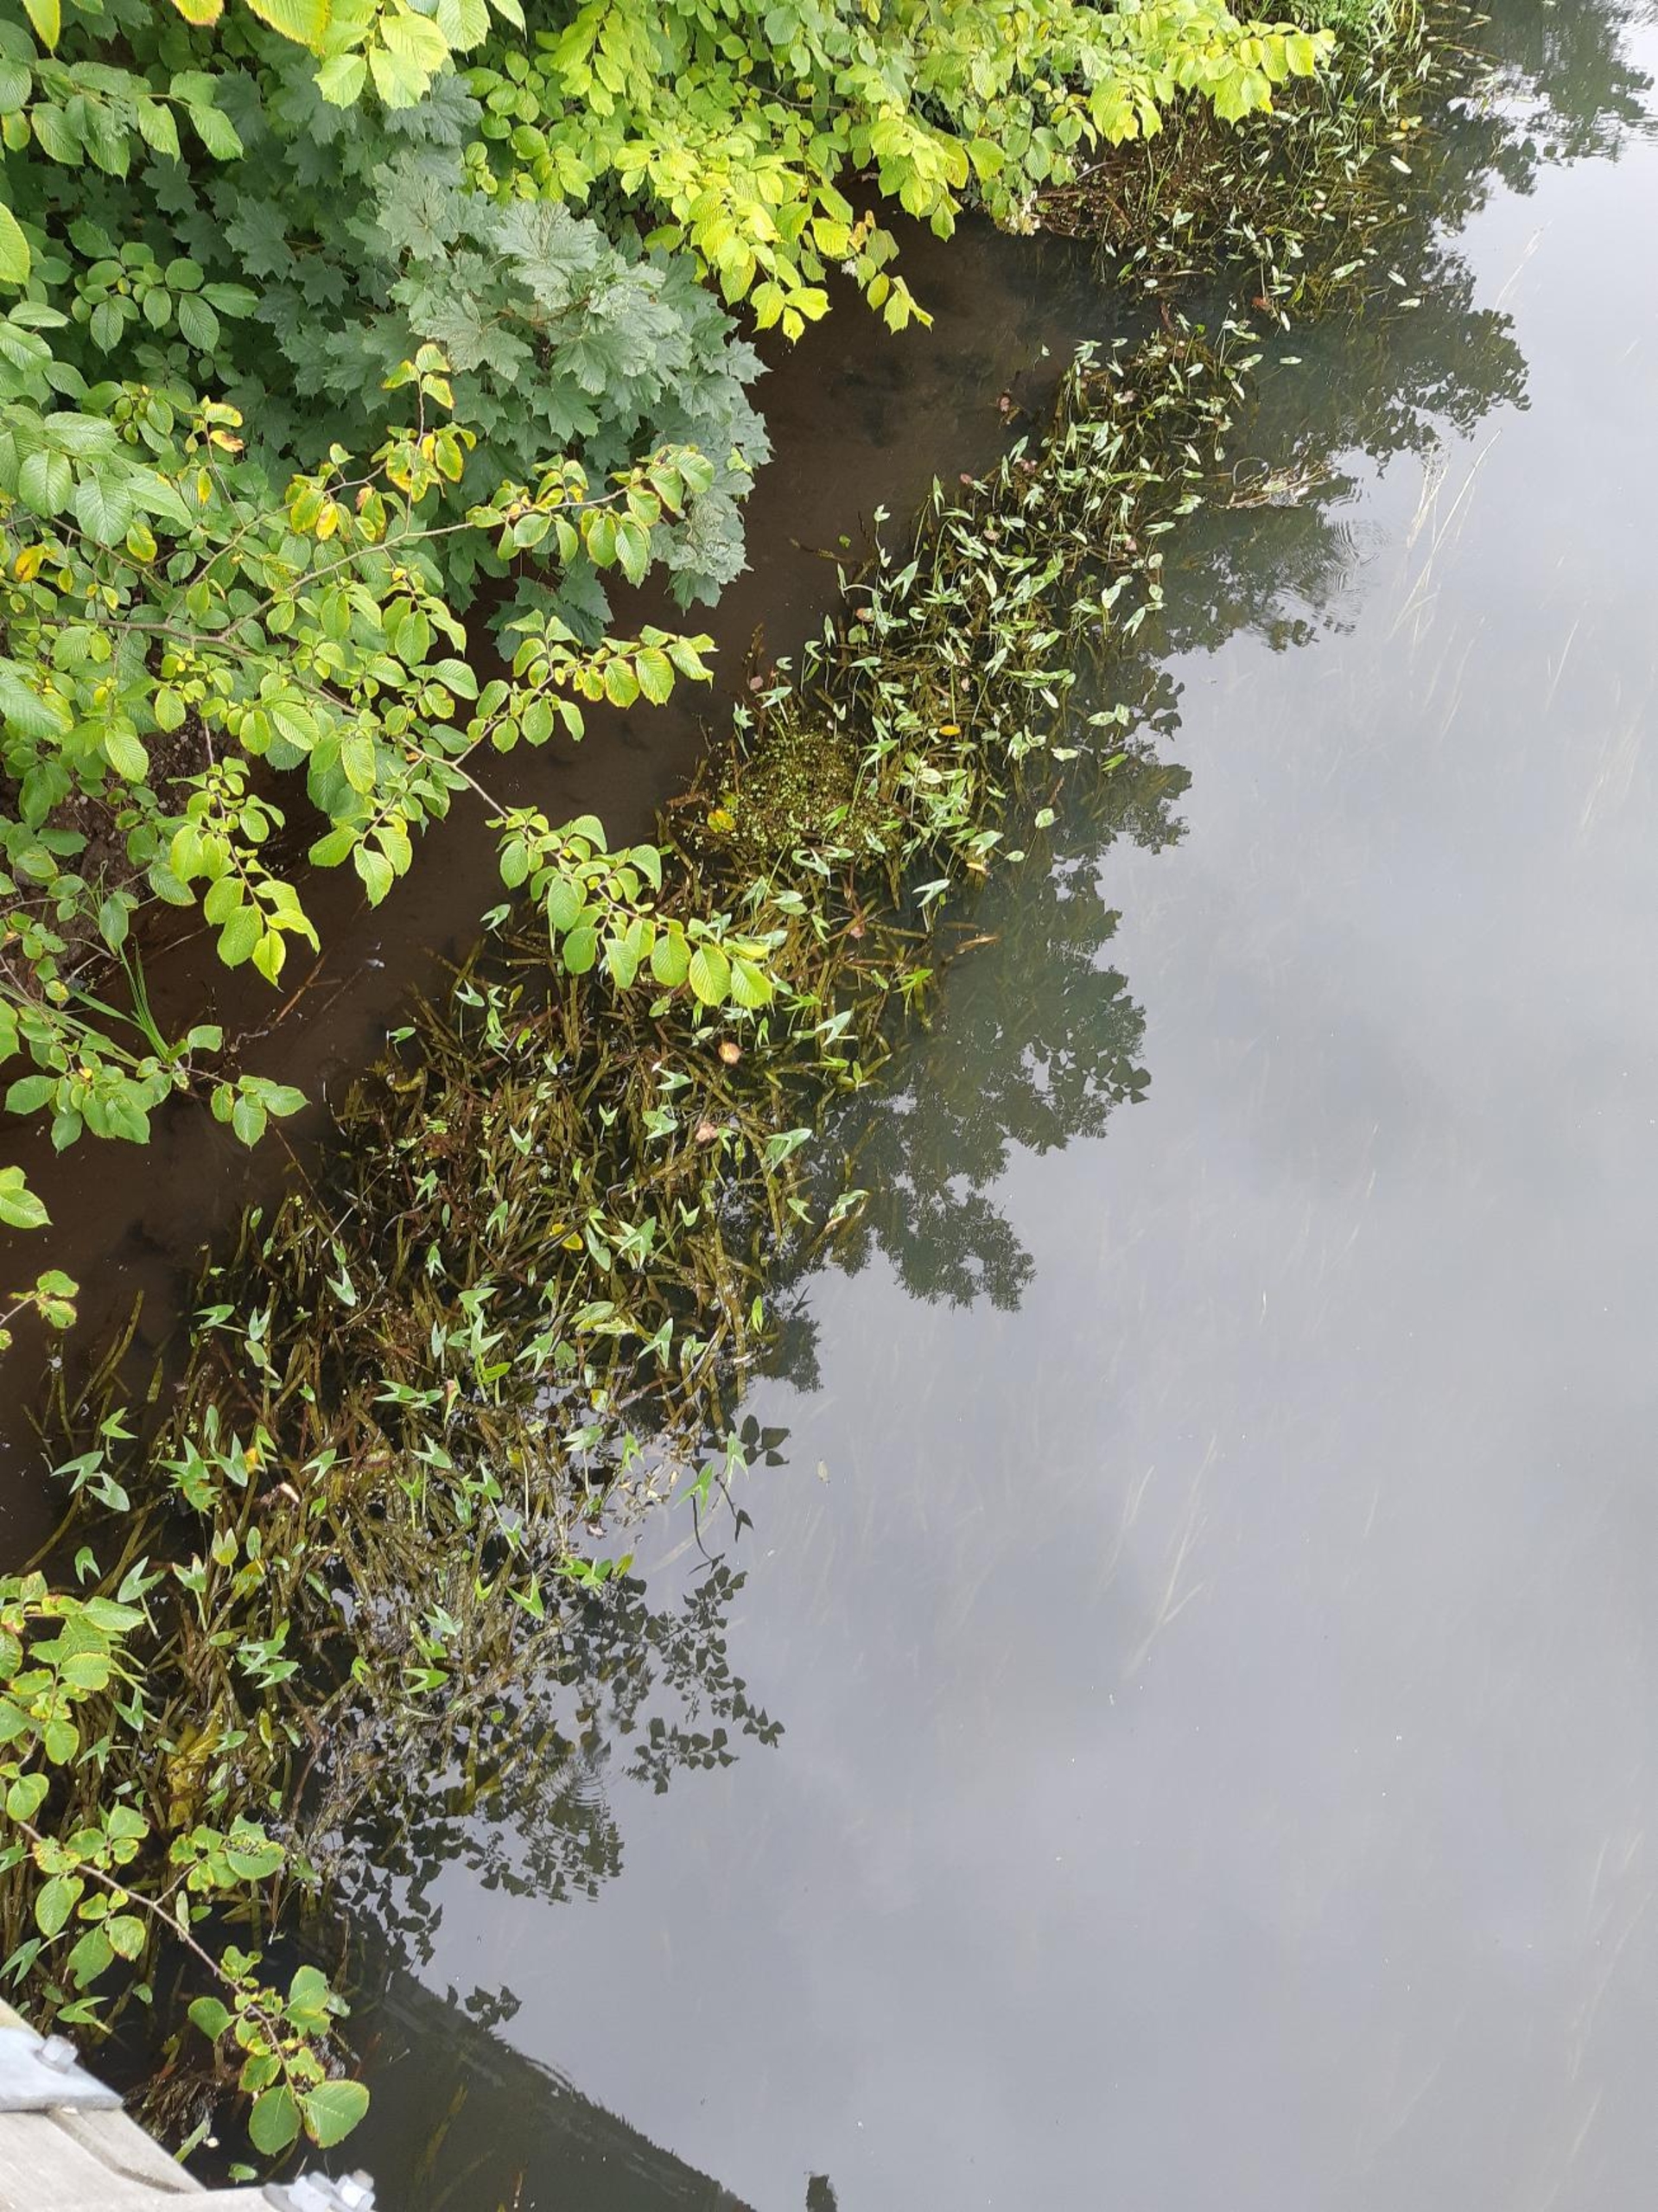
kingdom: Plantae
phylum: Tracheophyta
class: Liliopsida
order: Alismatales
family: Alismataceae
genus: Sagittaria
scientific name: Sagittaria sagittifolia
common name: Pilblad
